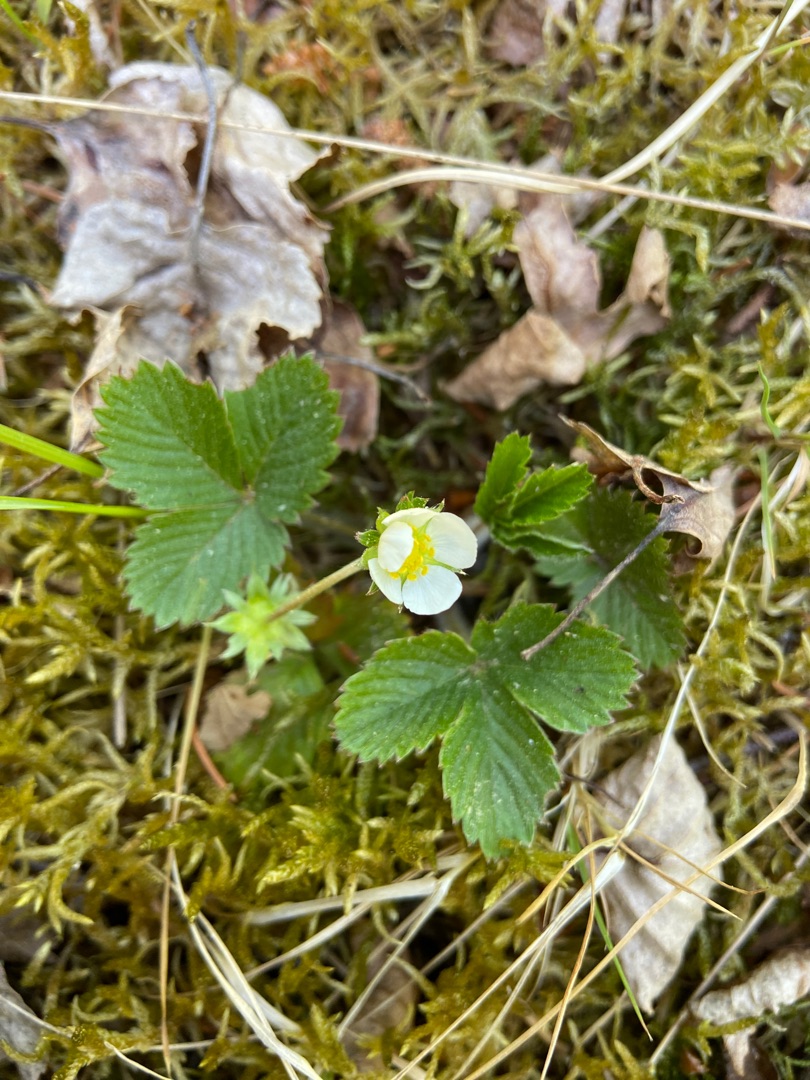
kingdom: Plantae
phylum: Tracheophyta
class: Magnoliopsida
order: Rosales
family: Rosaceae
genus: Fragaria
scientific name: Fragaria vesca
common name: Skov-jordbær
